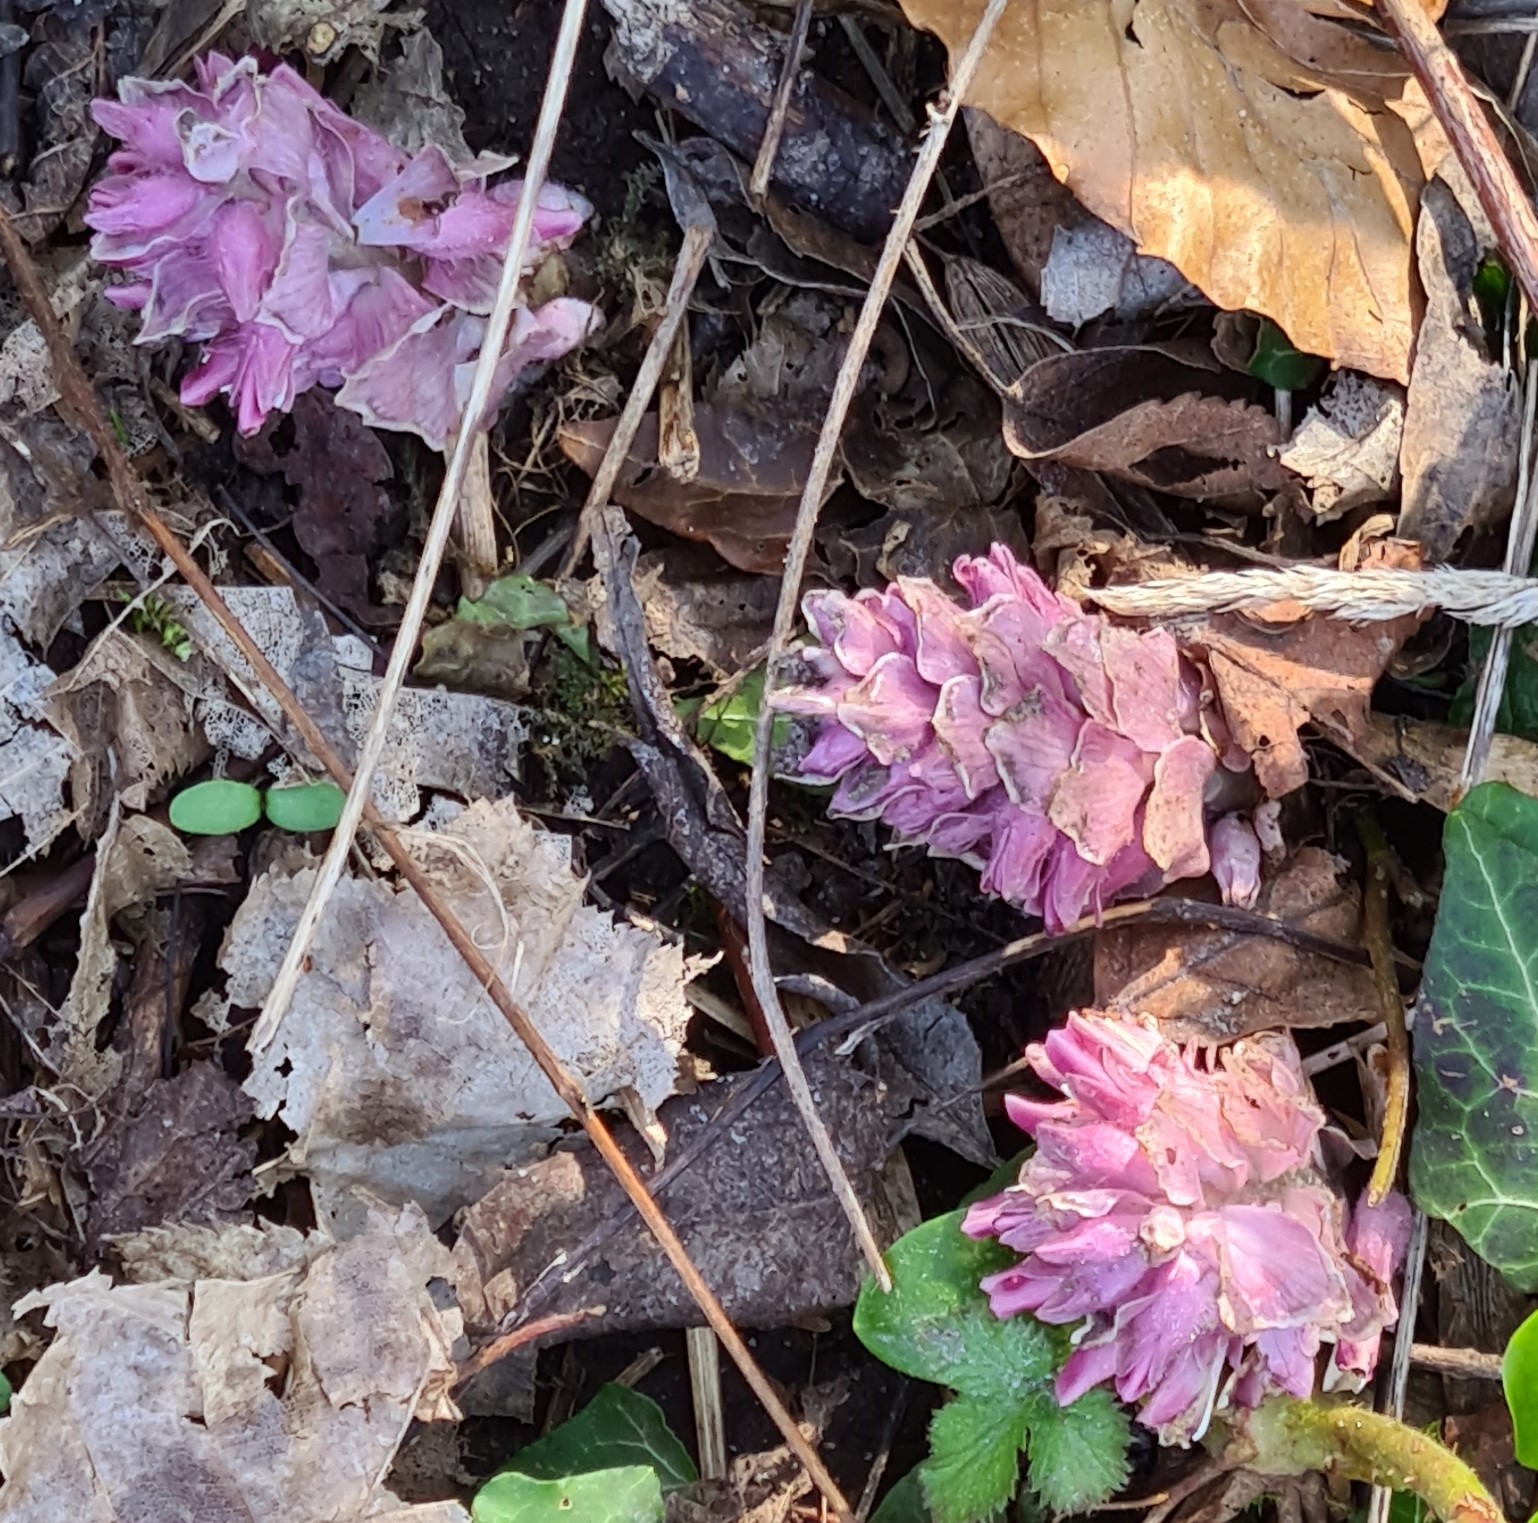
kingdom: Plantae
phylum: Tracheophyta
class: Magnoliopsida
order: Lamiales
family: Orobanchaceae
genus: Lathraea
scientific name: Lathraea squamaria
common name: Skælrod
